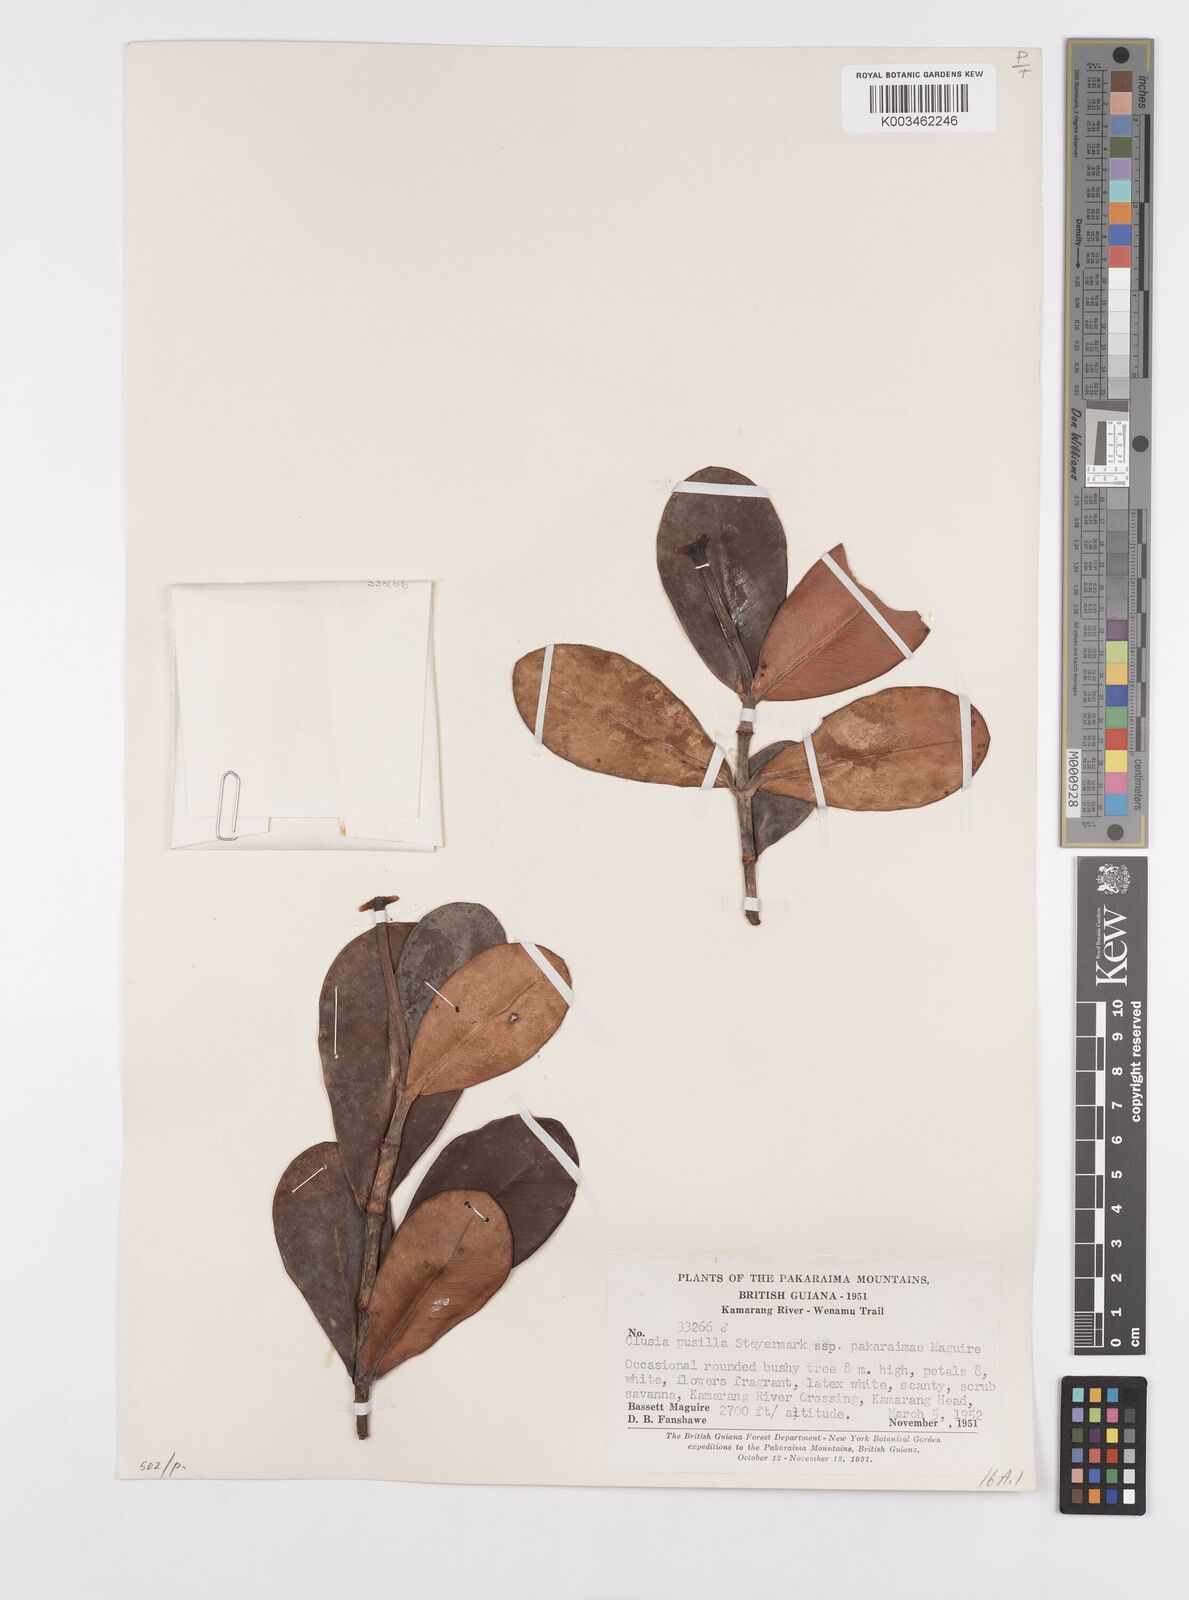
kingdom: Plantae
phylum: Tracheophyta
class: Magnoliopsida
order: Malpighiales
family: Clusiaceae
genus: Clusia
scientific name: Clusia pusilla
